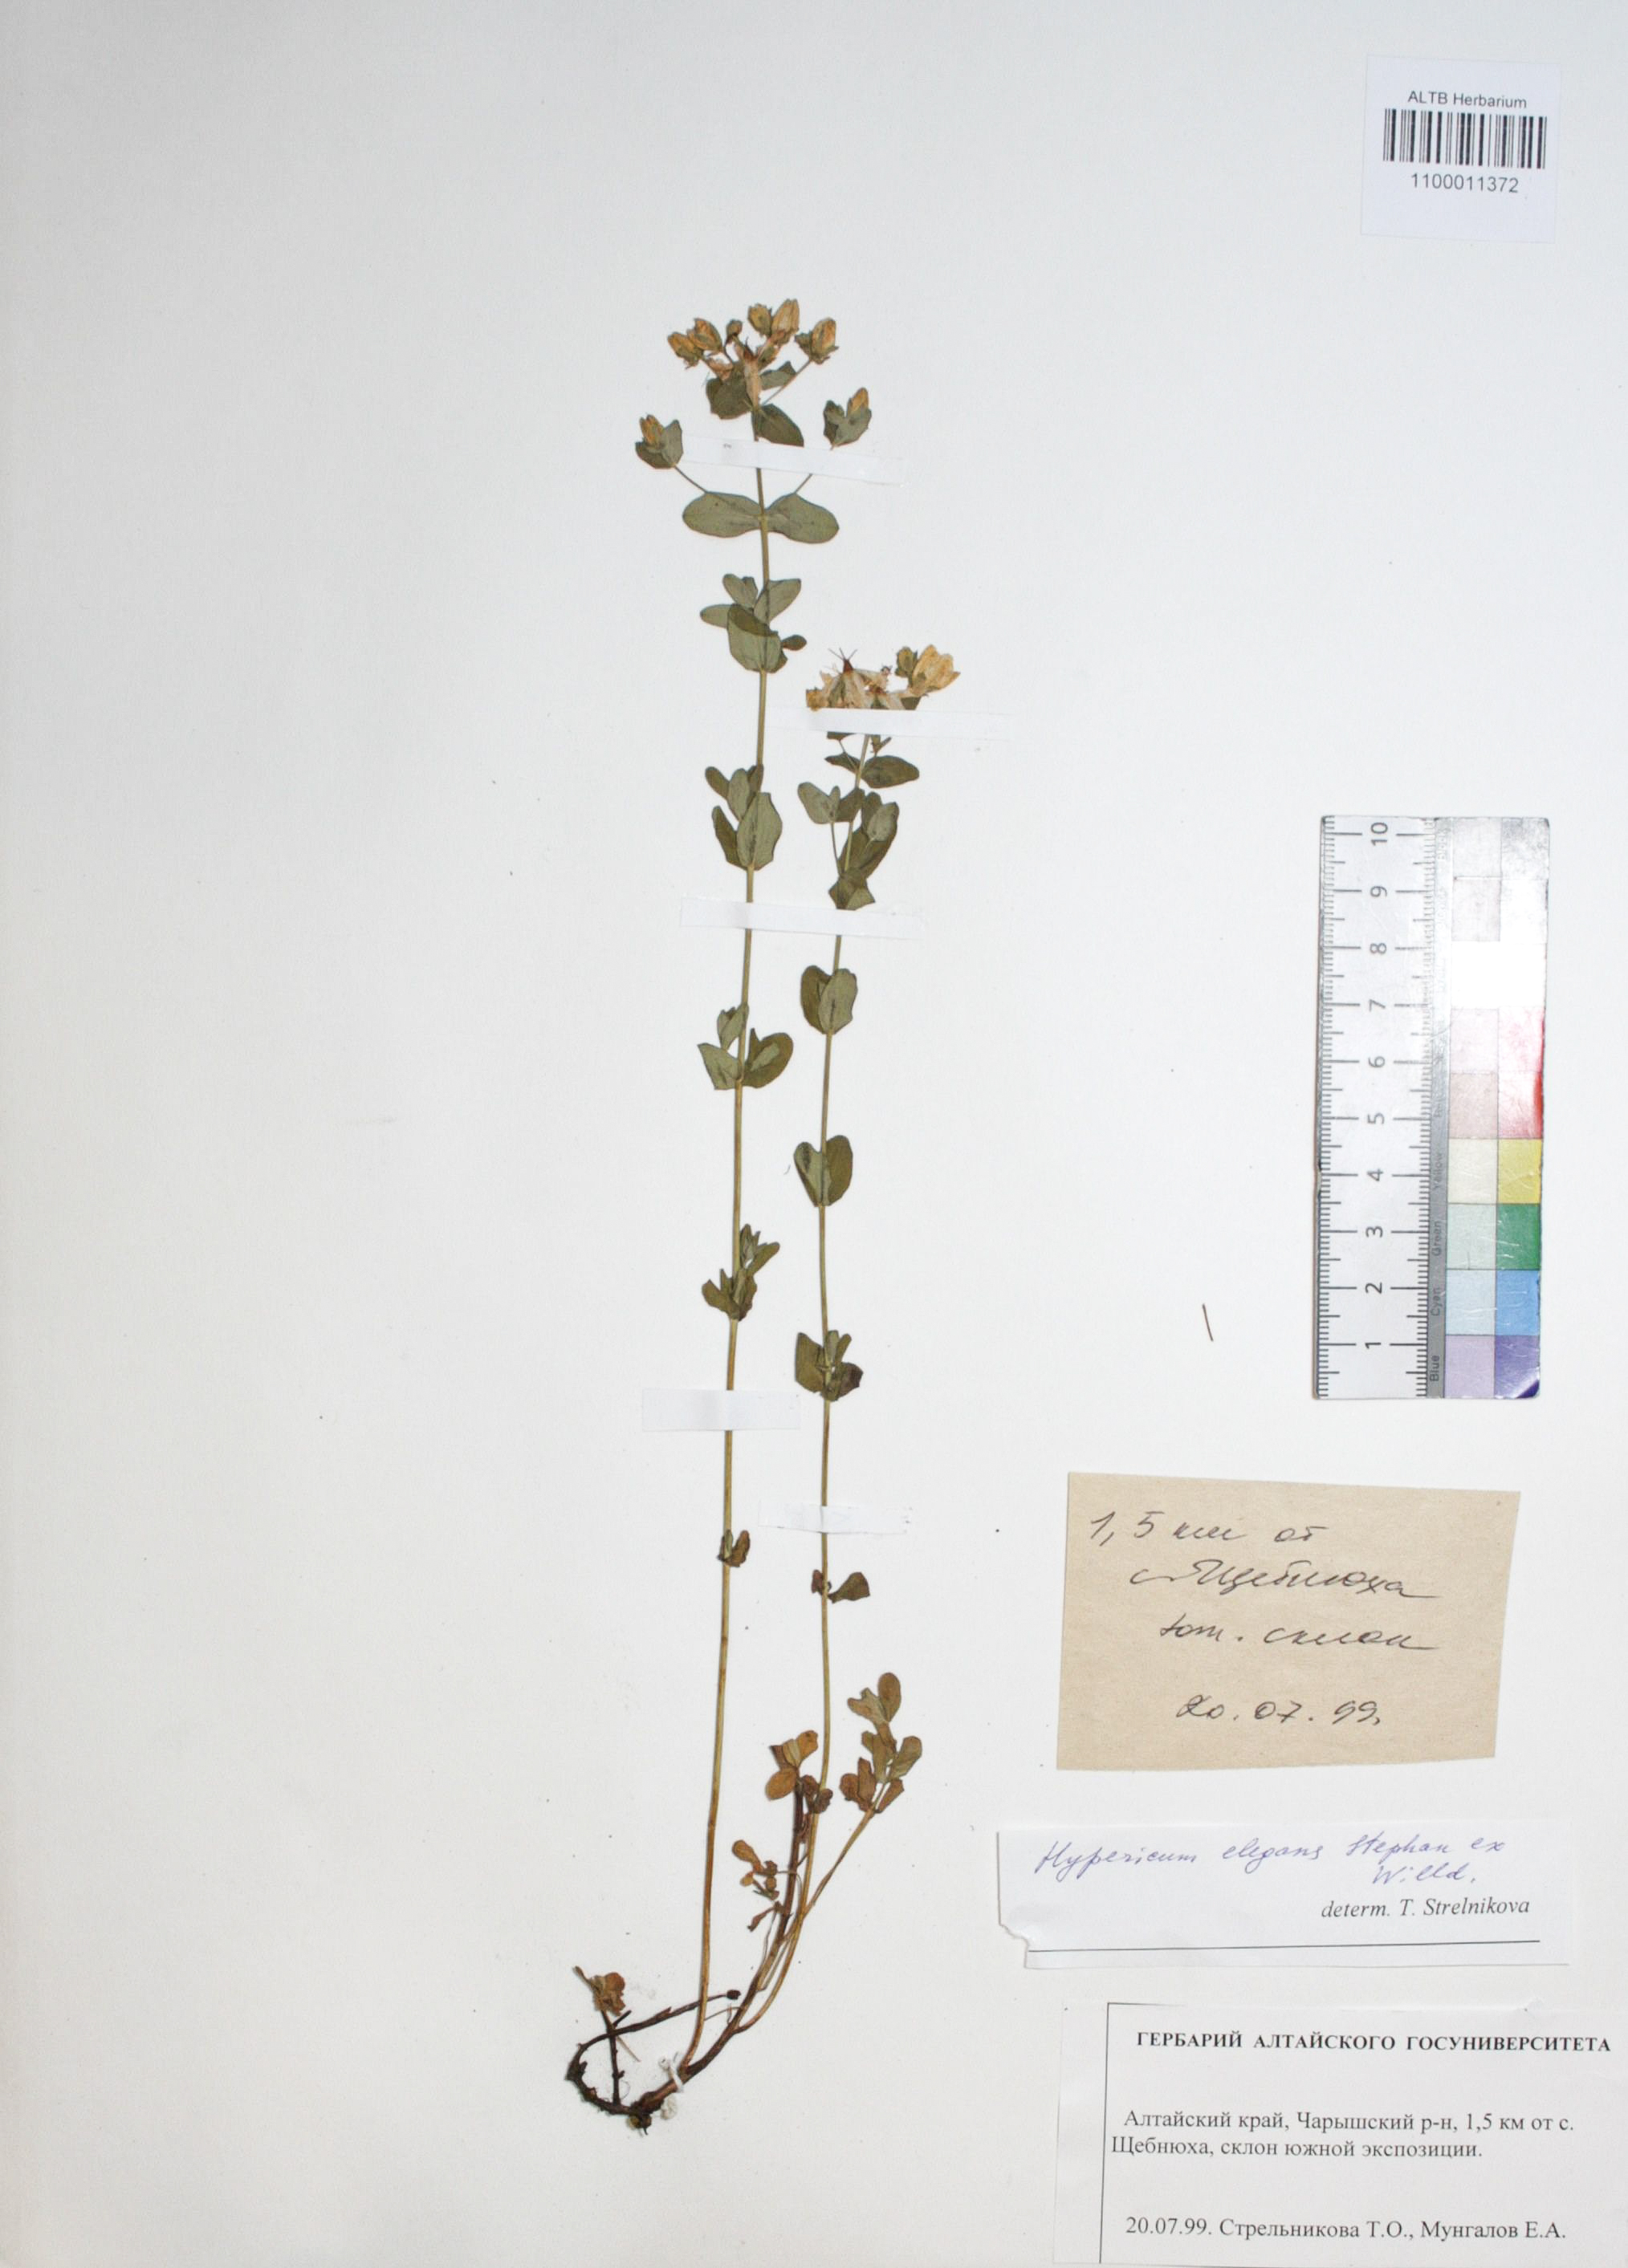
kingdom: Plantae
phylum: Tracheophyta
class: Magnoliopsida
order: Malpighiales
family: Hypericaceae
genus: Hypericum
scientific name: Hypericum elegans
